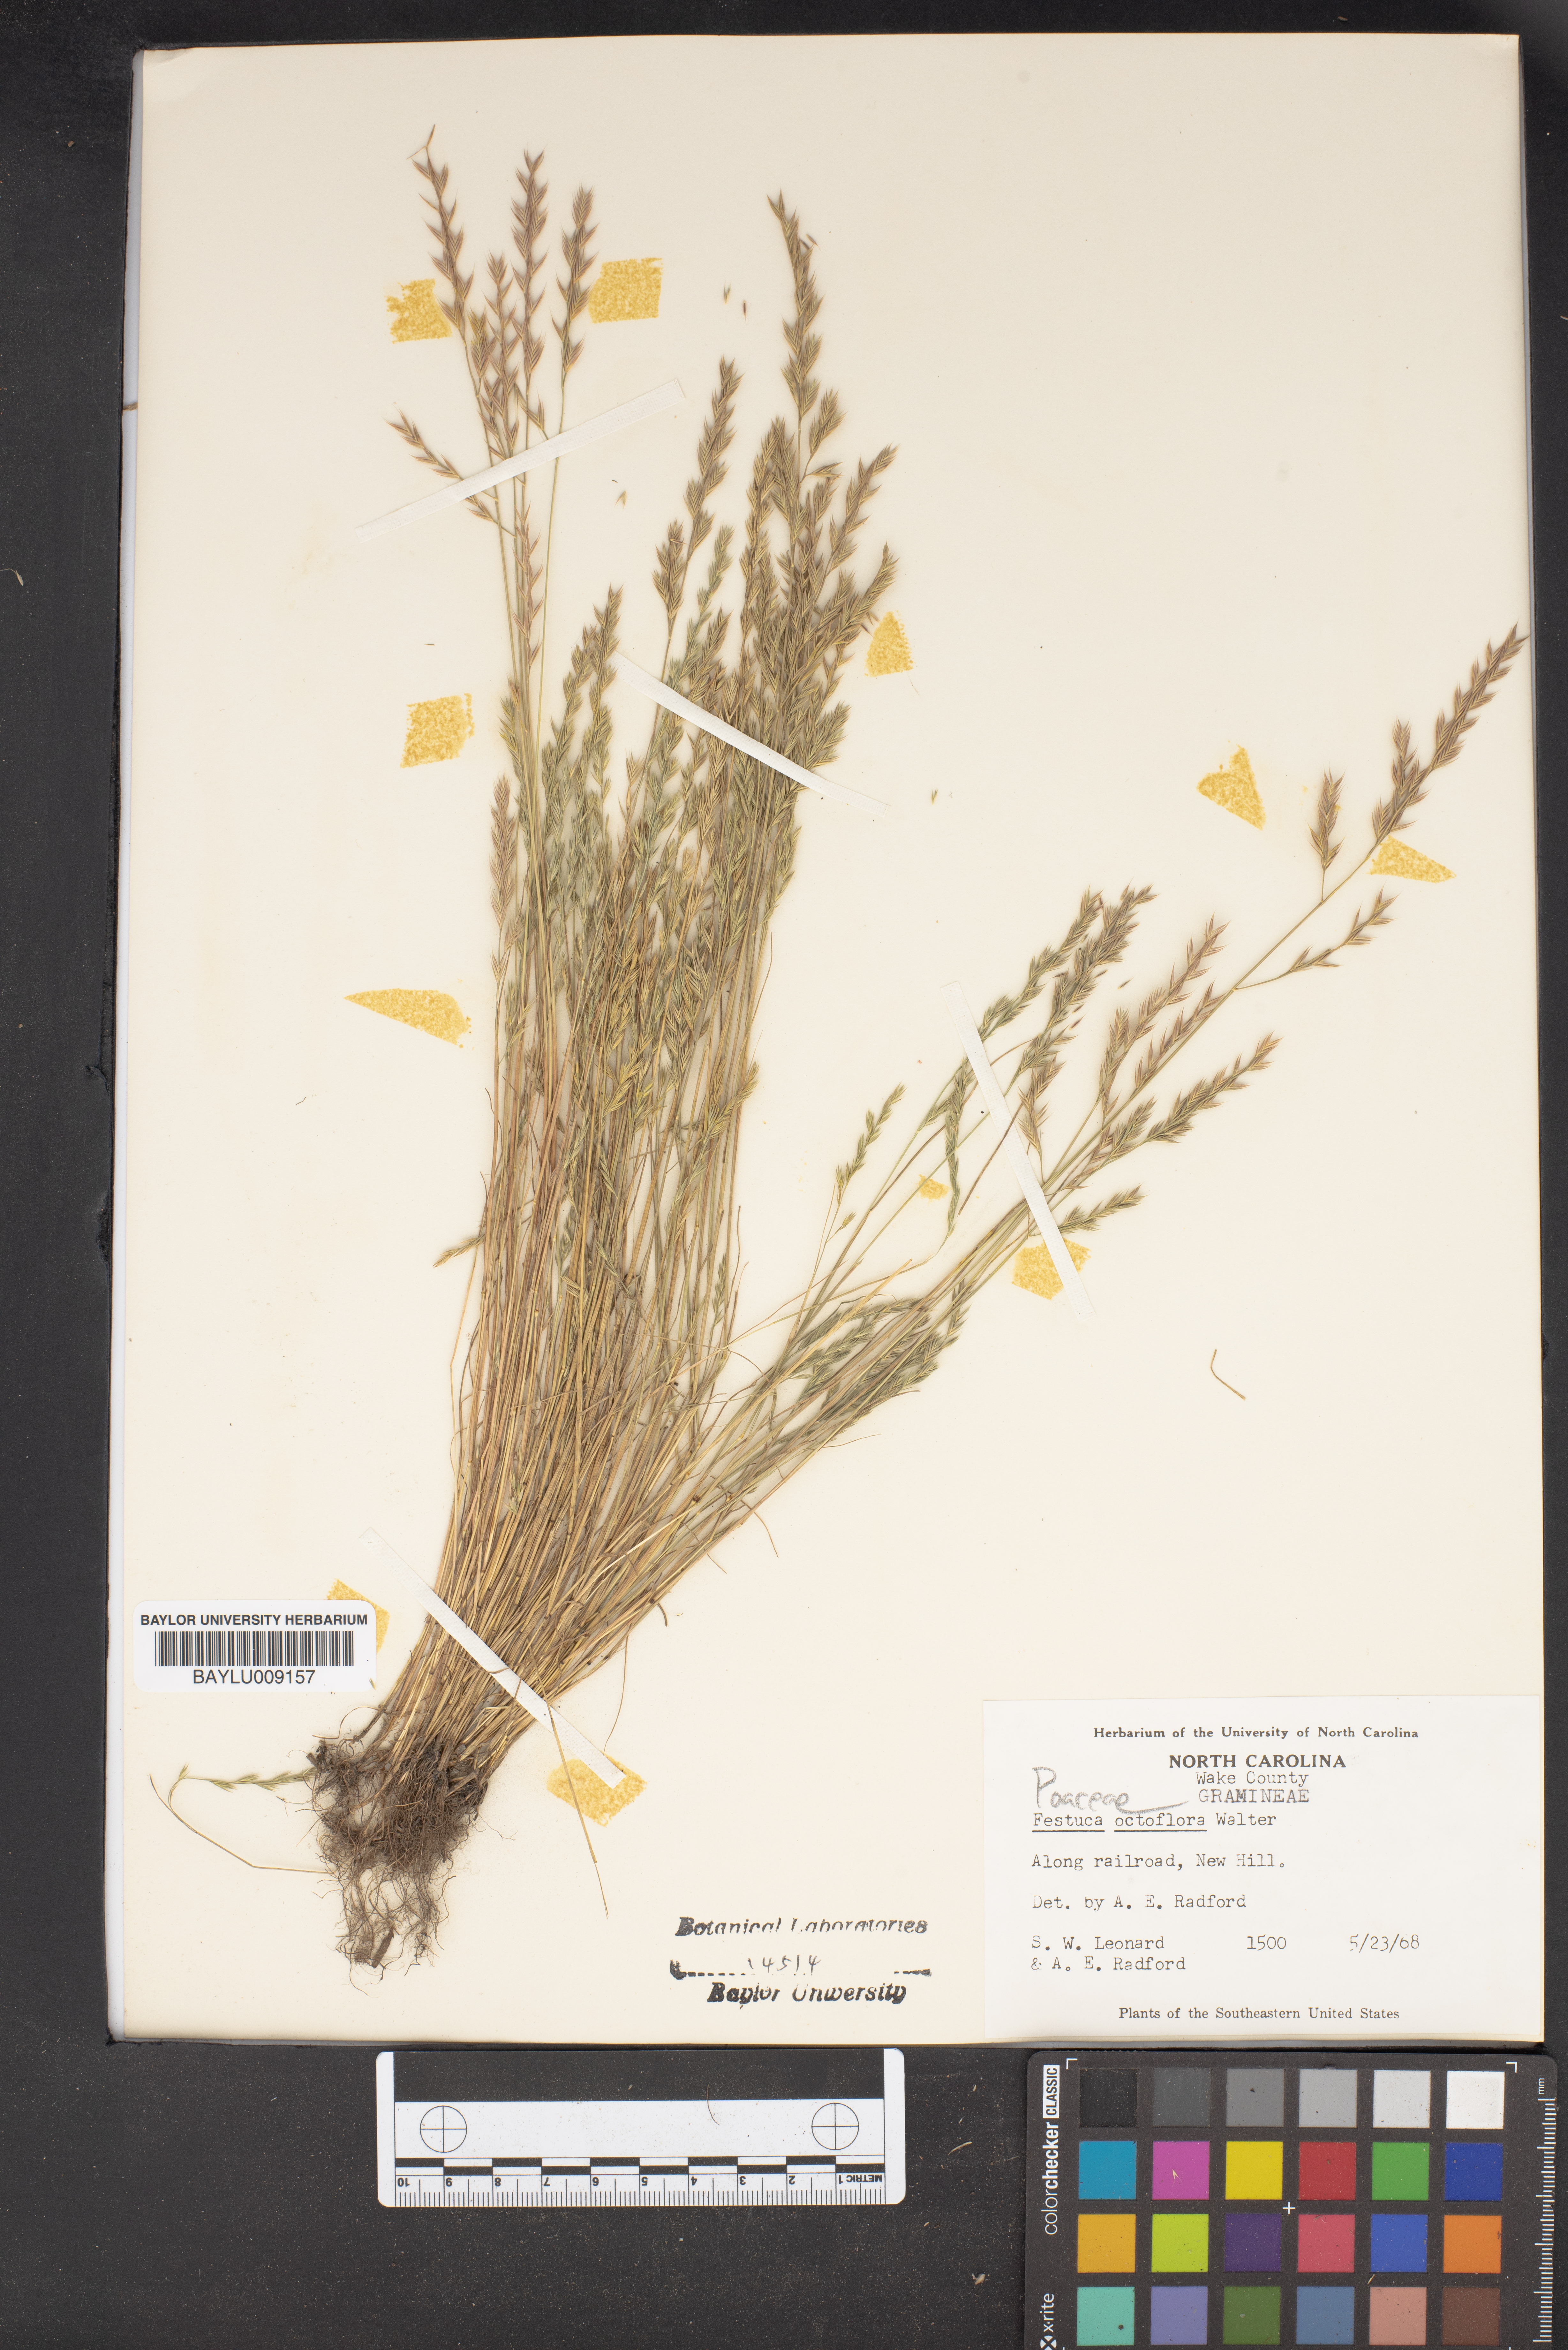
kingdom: Plantae
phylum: Tracheophyta
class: Liliopsida
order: Poales
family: Poaceae
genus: Festuca
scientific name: Festuca octoflora
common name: Sixweeks grass
